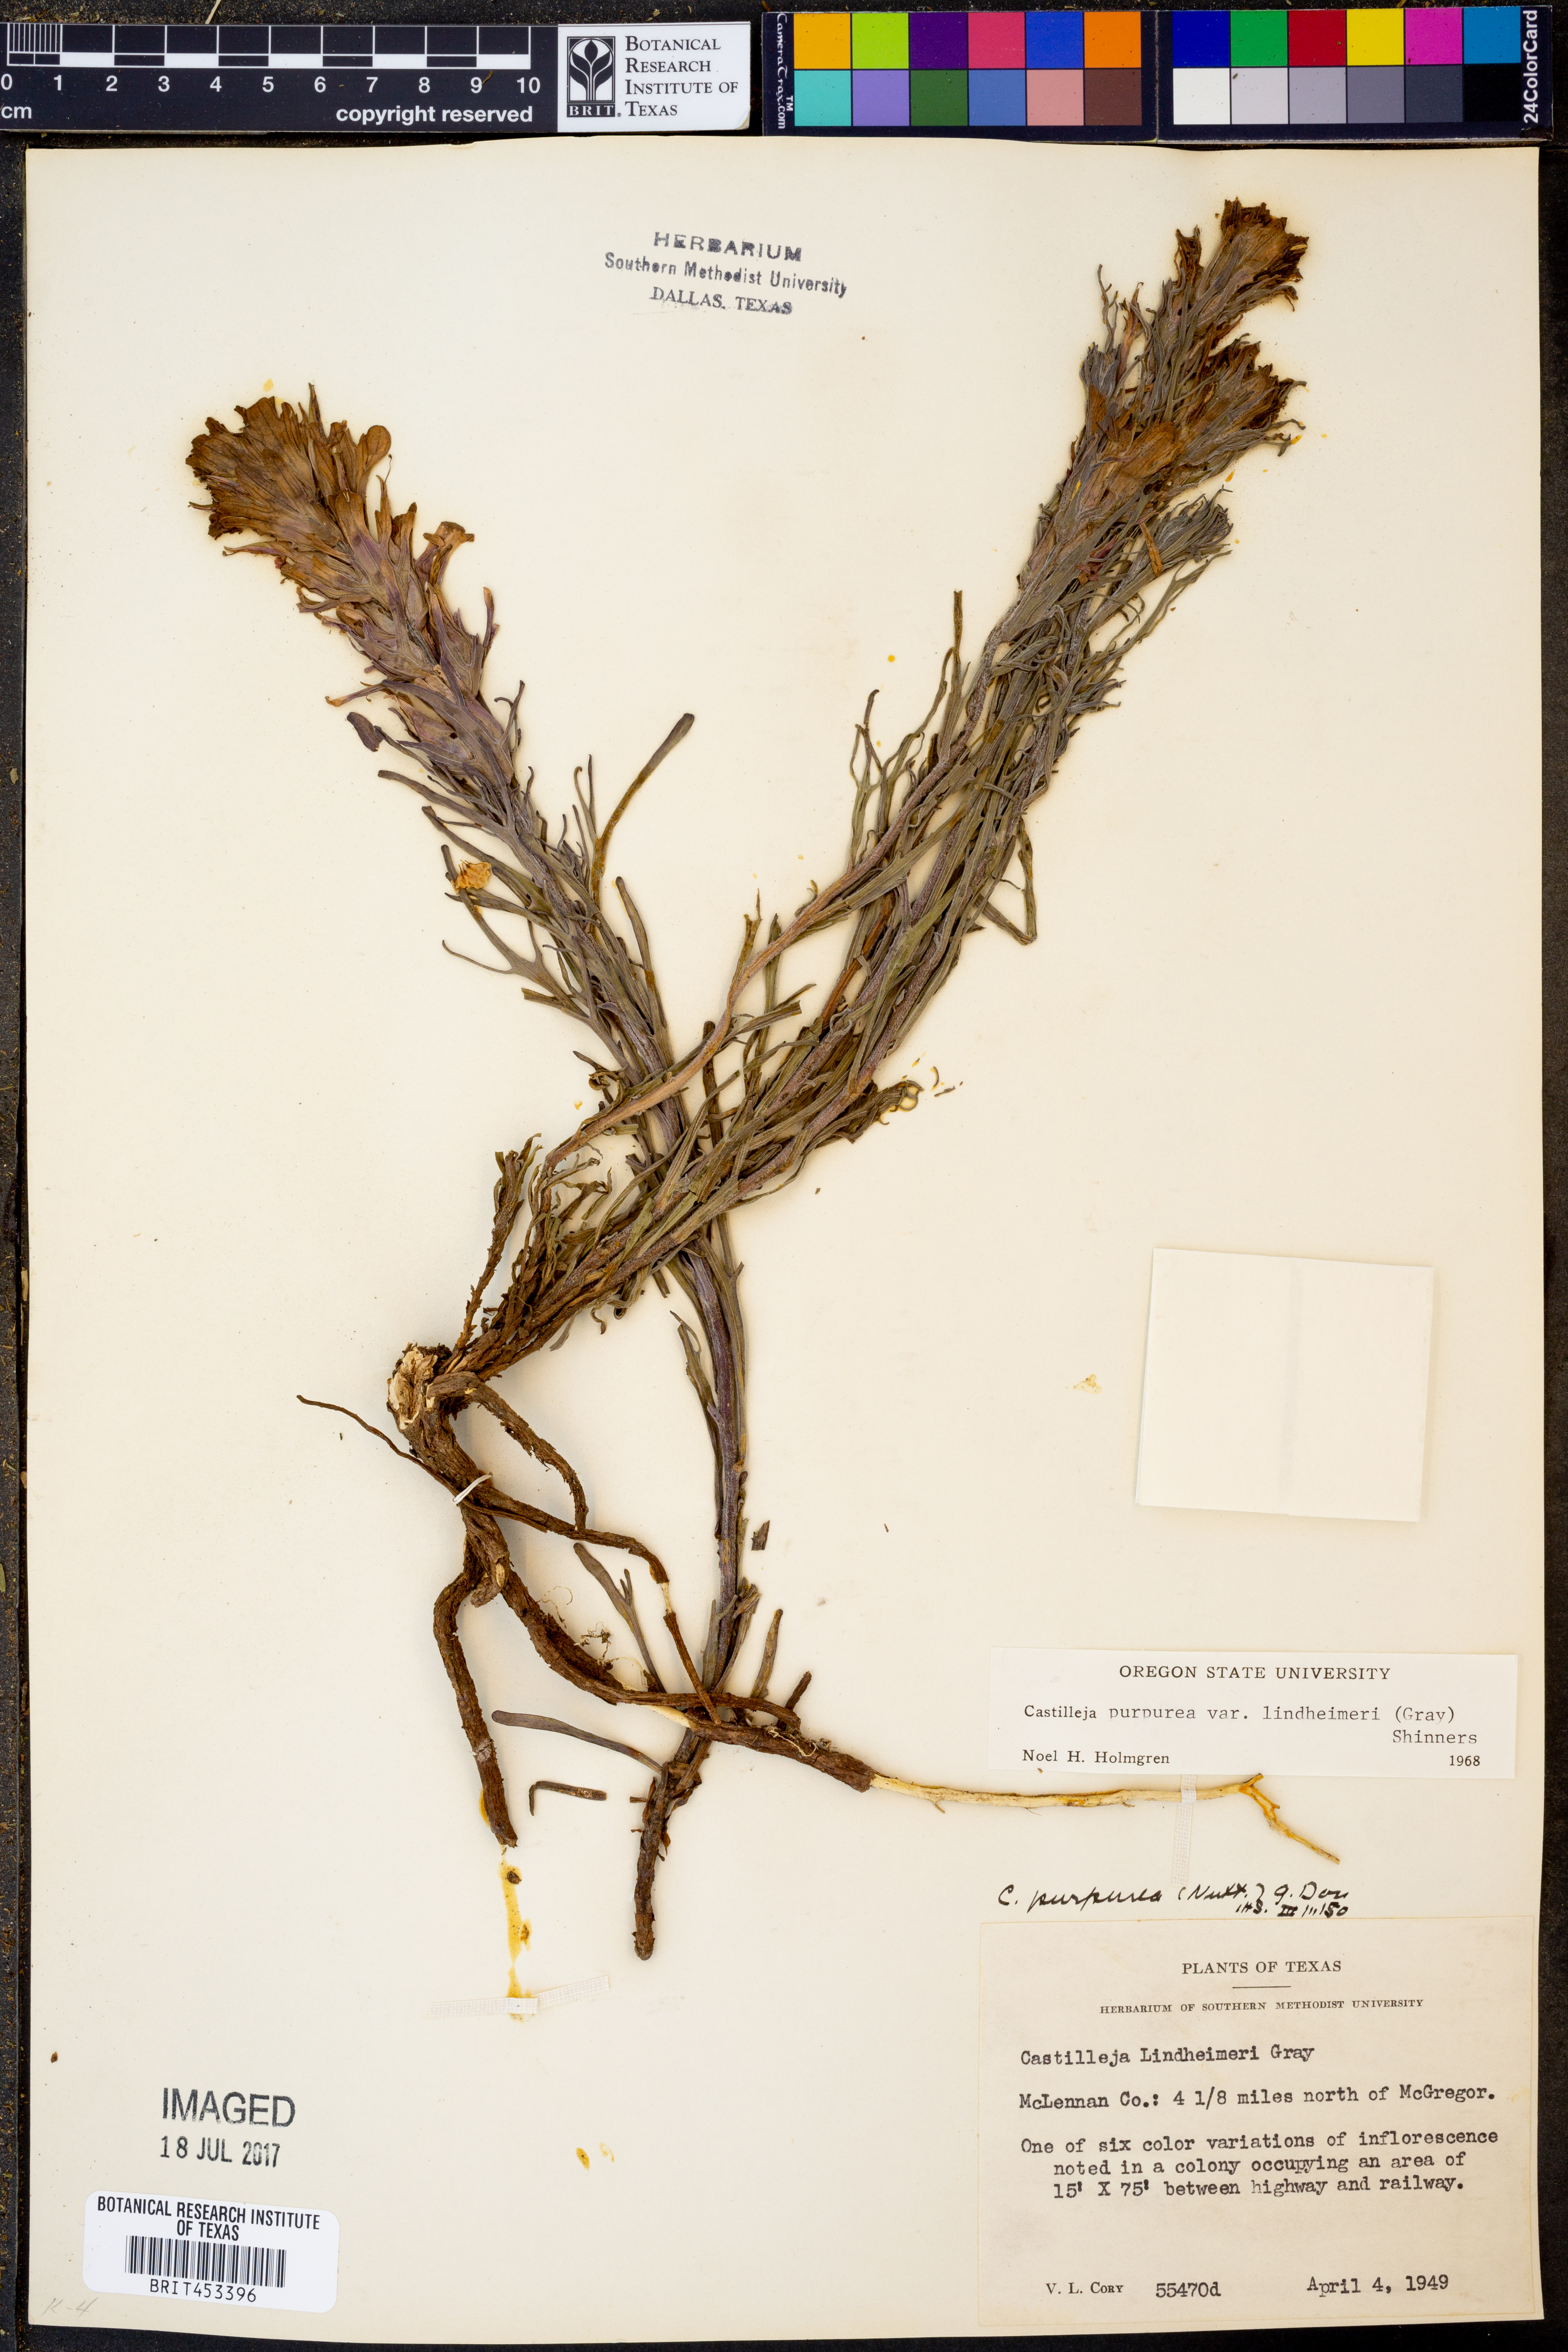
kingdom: Plantae
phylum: Tracheophyta
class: Magnoliopsida
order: Lamiales
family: Orobanchaceae
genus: Castilleja
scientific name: Castilleja lindheimeri
